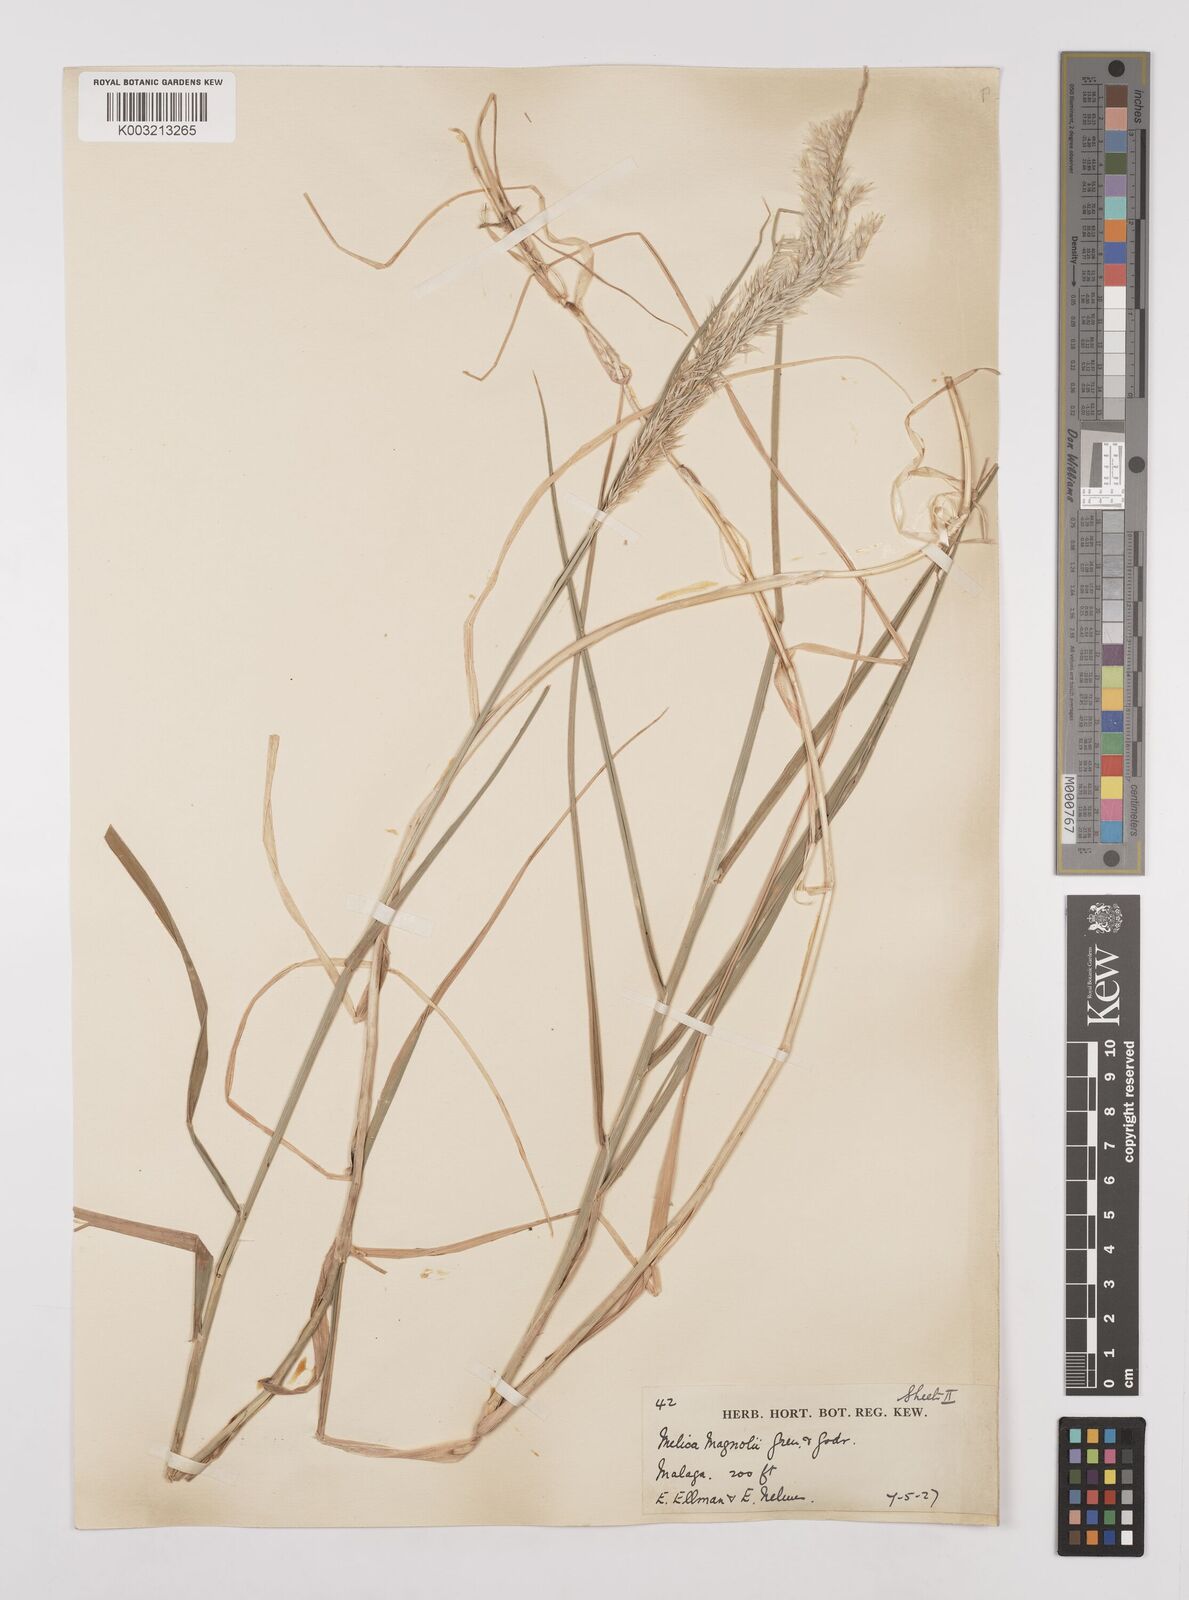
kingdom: Plantae
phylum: Tracheophyta
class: Liliopsida
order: Poales
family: Poaceae
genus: Melica
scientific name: Melica ciliata
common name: Hairy melicgrass
